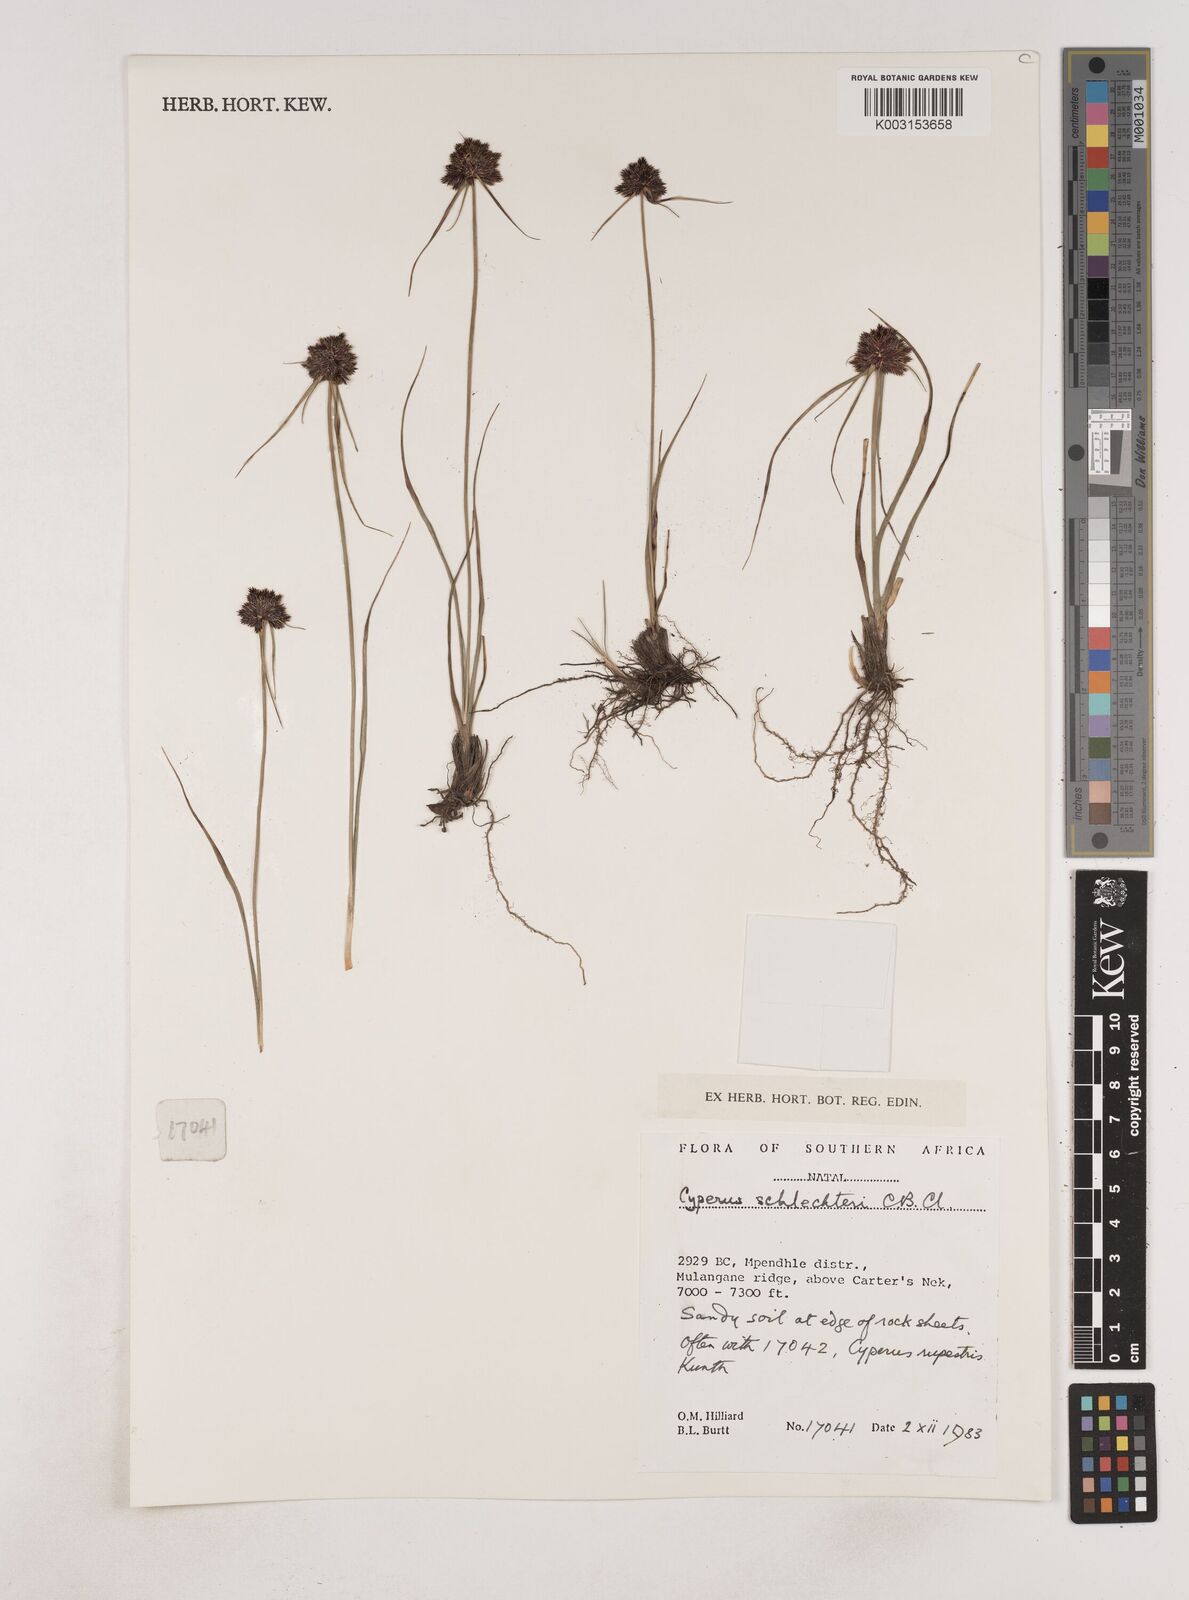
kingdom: Plantae
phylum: Tracheophyta
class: Liliopsida
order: Poales
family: Cyperaceae
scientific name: Cyperaceae
